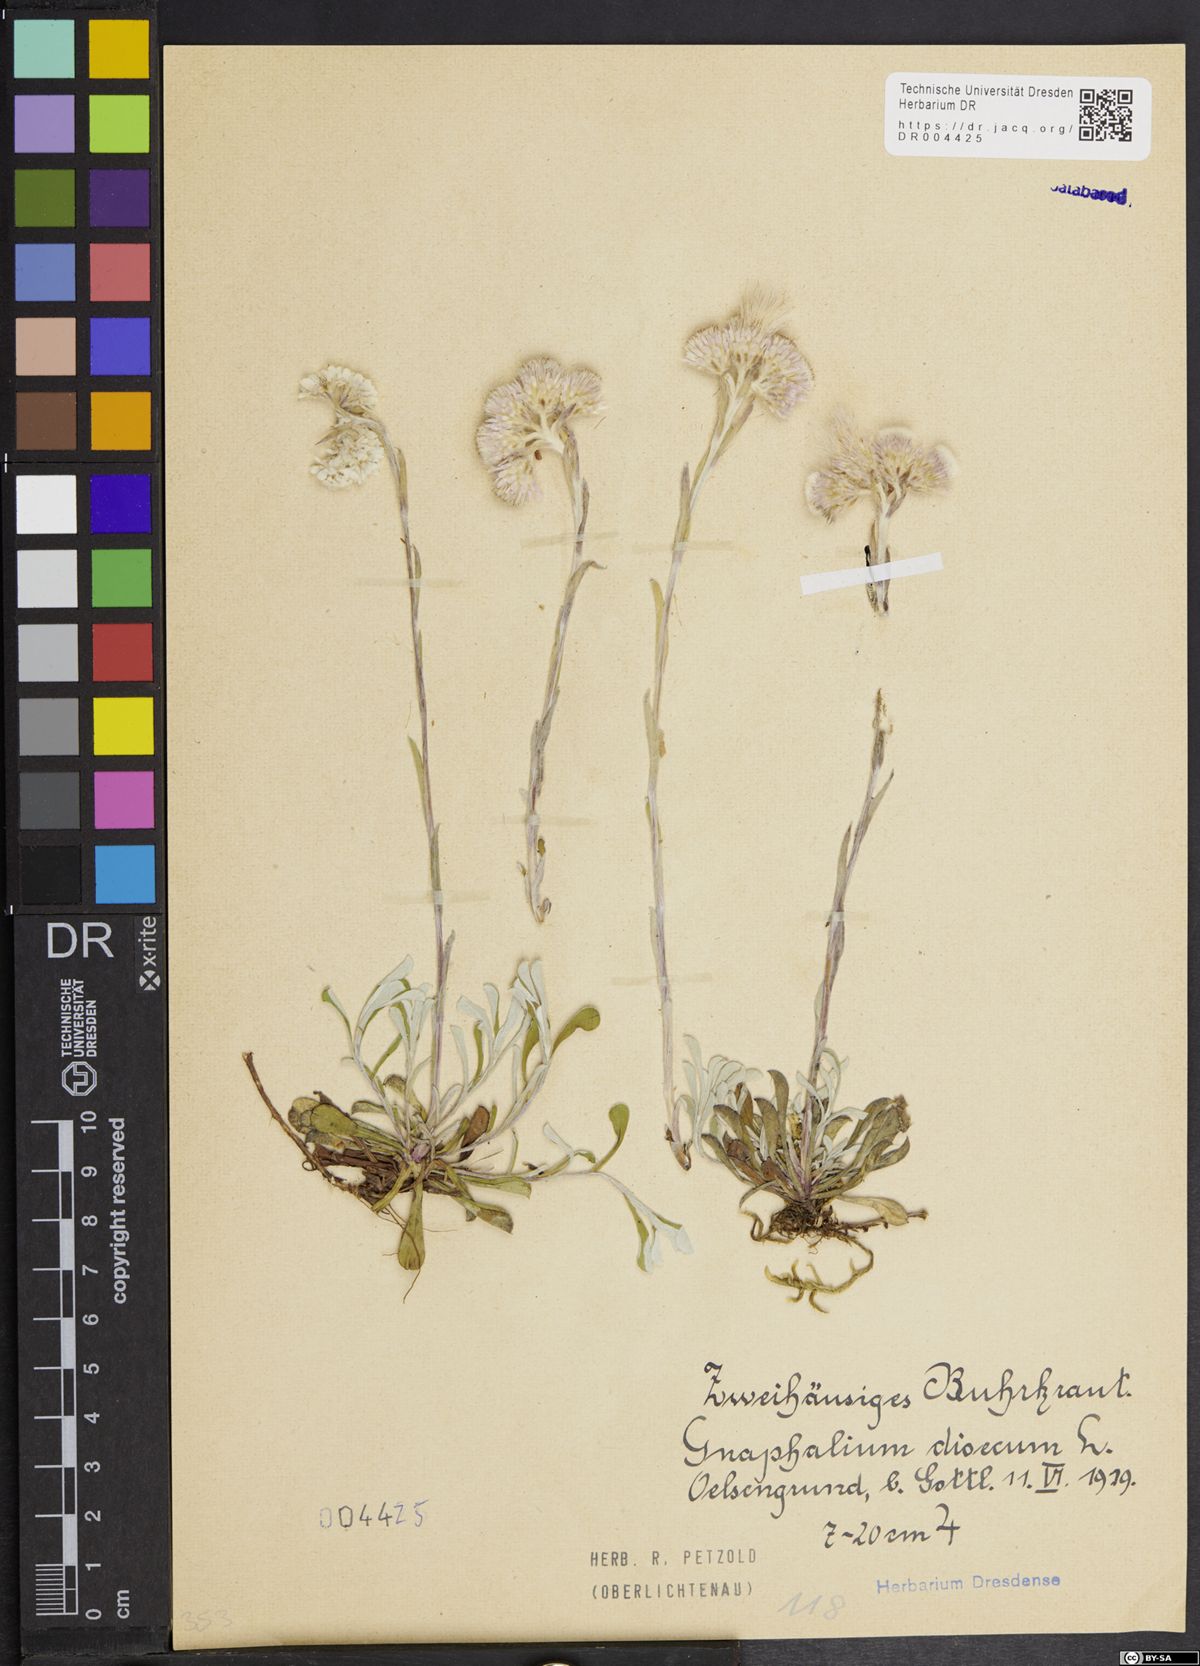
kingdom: Plantae
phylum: Tracheophyta
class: Magnoliopsida
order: Asterales
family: Asteraceae
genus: Antennaria
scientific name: Antennaria dioica
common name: Mountain everlasting
